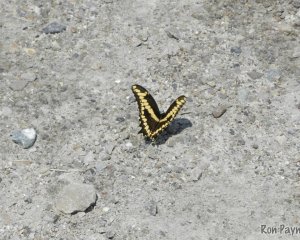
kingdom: Animalia
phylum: Arthropoda
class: Insecta
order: Lepidoptera
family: Papilionidae
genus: Papilio
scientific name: Papilio cresphontes
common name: Eastern Giant Swallowtail
